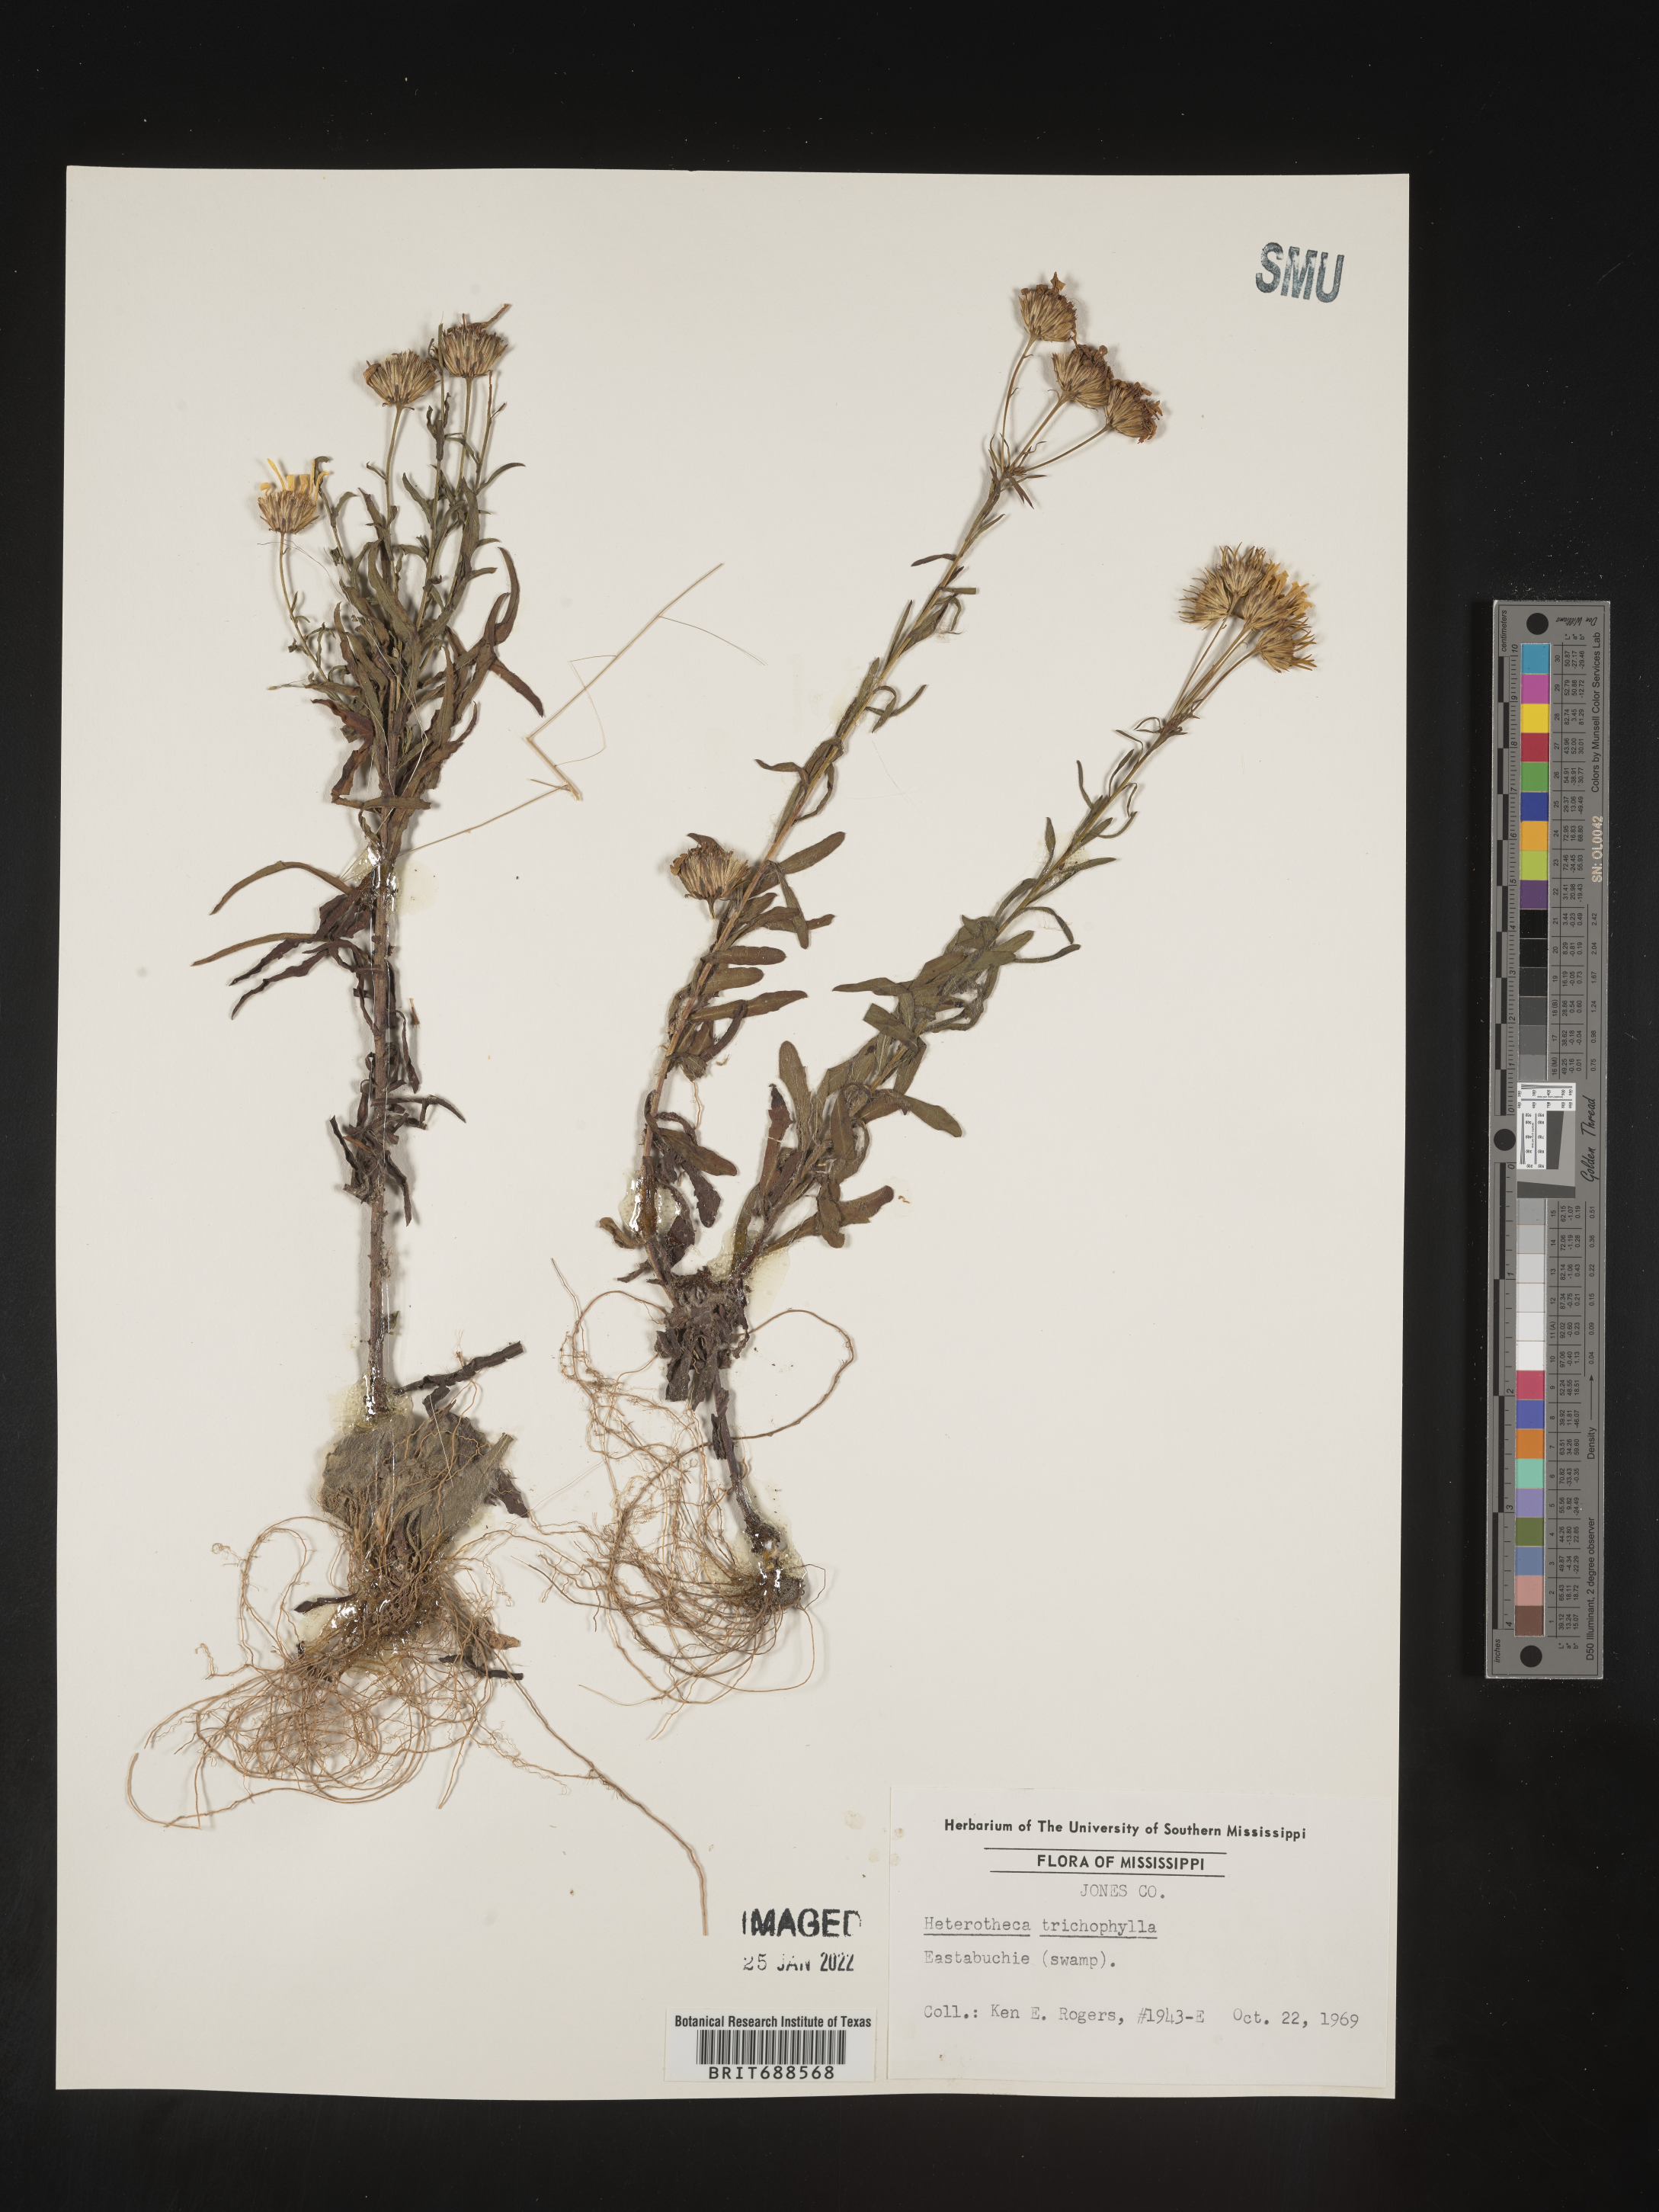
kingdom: Plantae
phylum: Tracheophyta
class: Magnoliopsida
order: Asterales
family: Asteraceae
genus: Chrysopsis
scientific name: Chrysopsis gossypina
